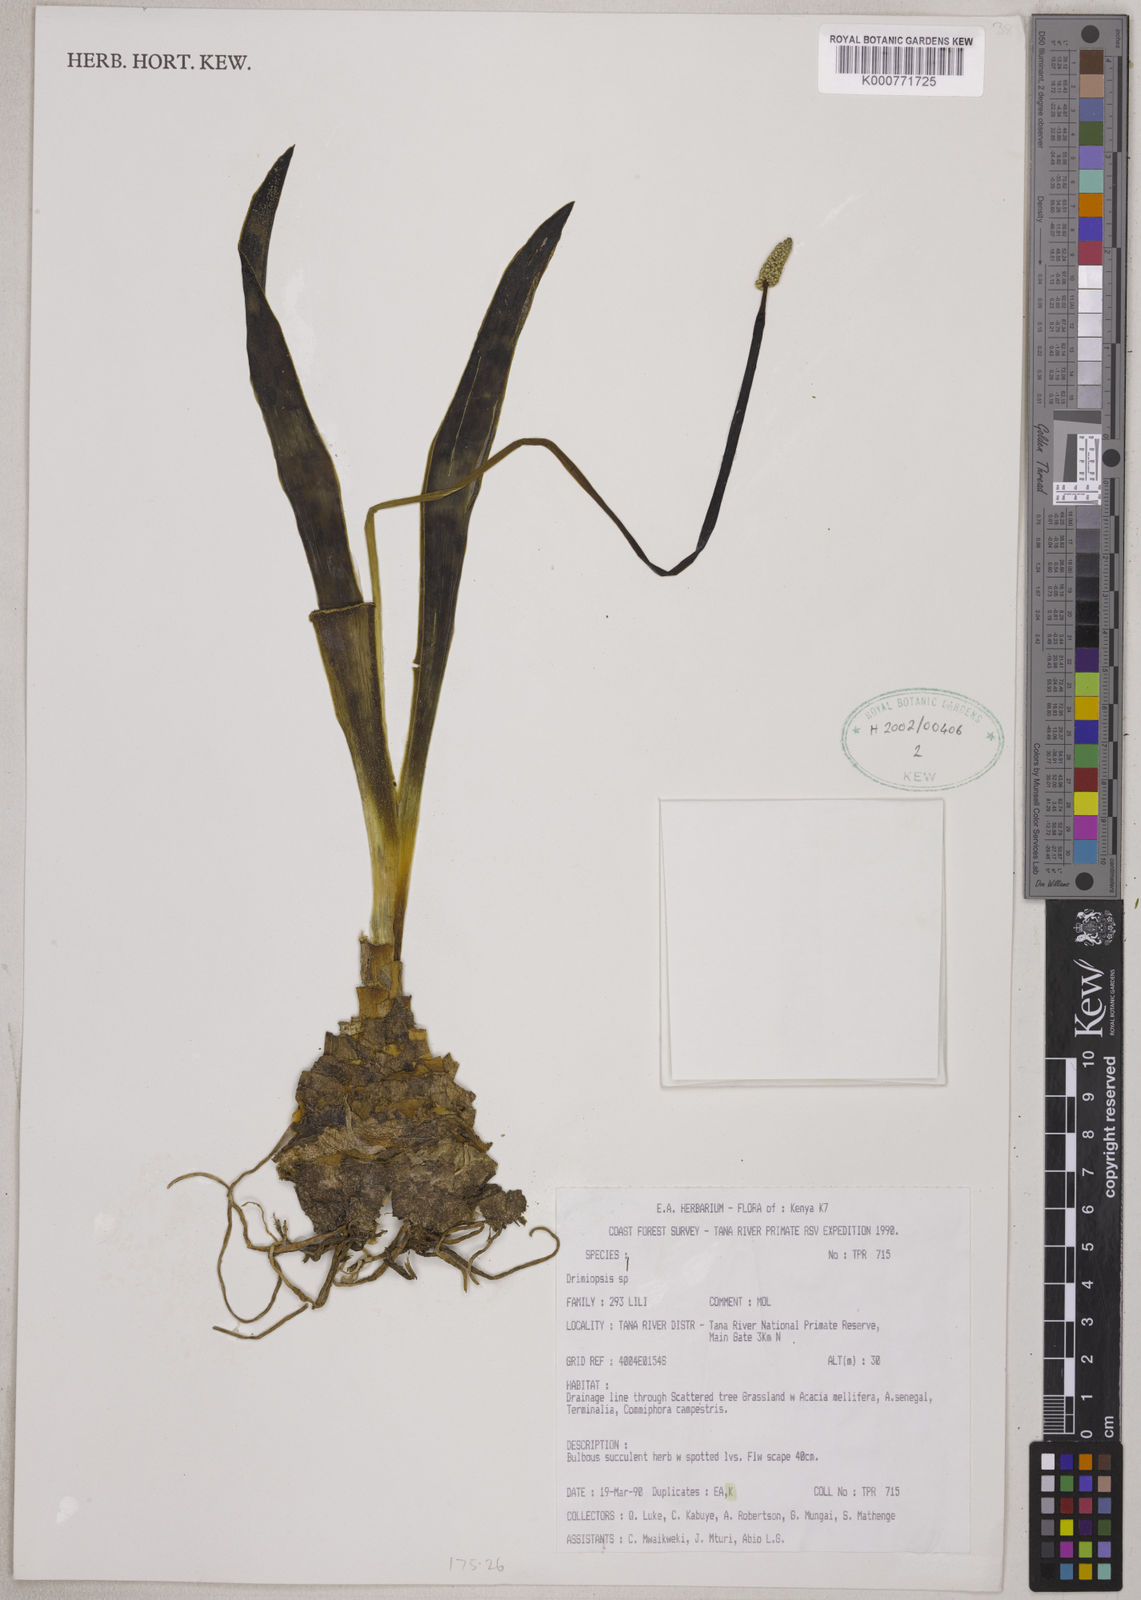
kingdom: Plantae
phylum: Tracheophyta
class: Liliopsida
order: Asparagales
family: Asparagaceae
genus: Drimiopsis
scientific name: Drimiopsis
